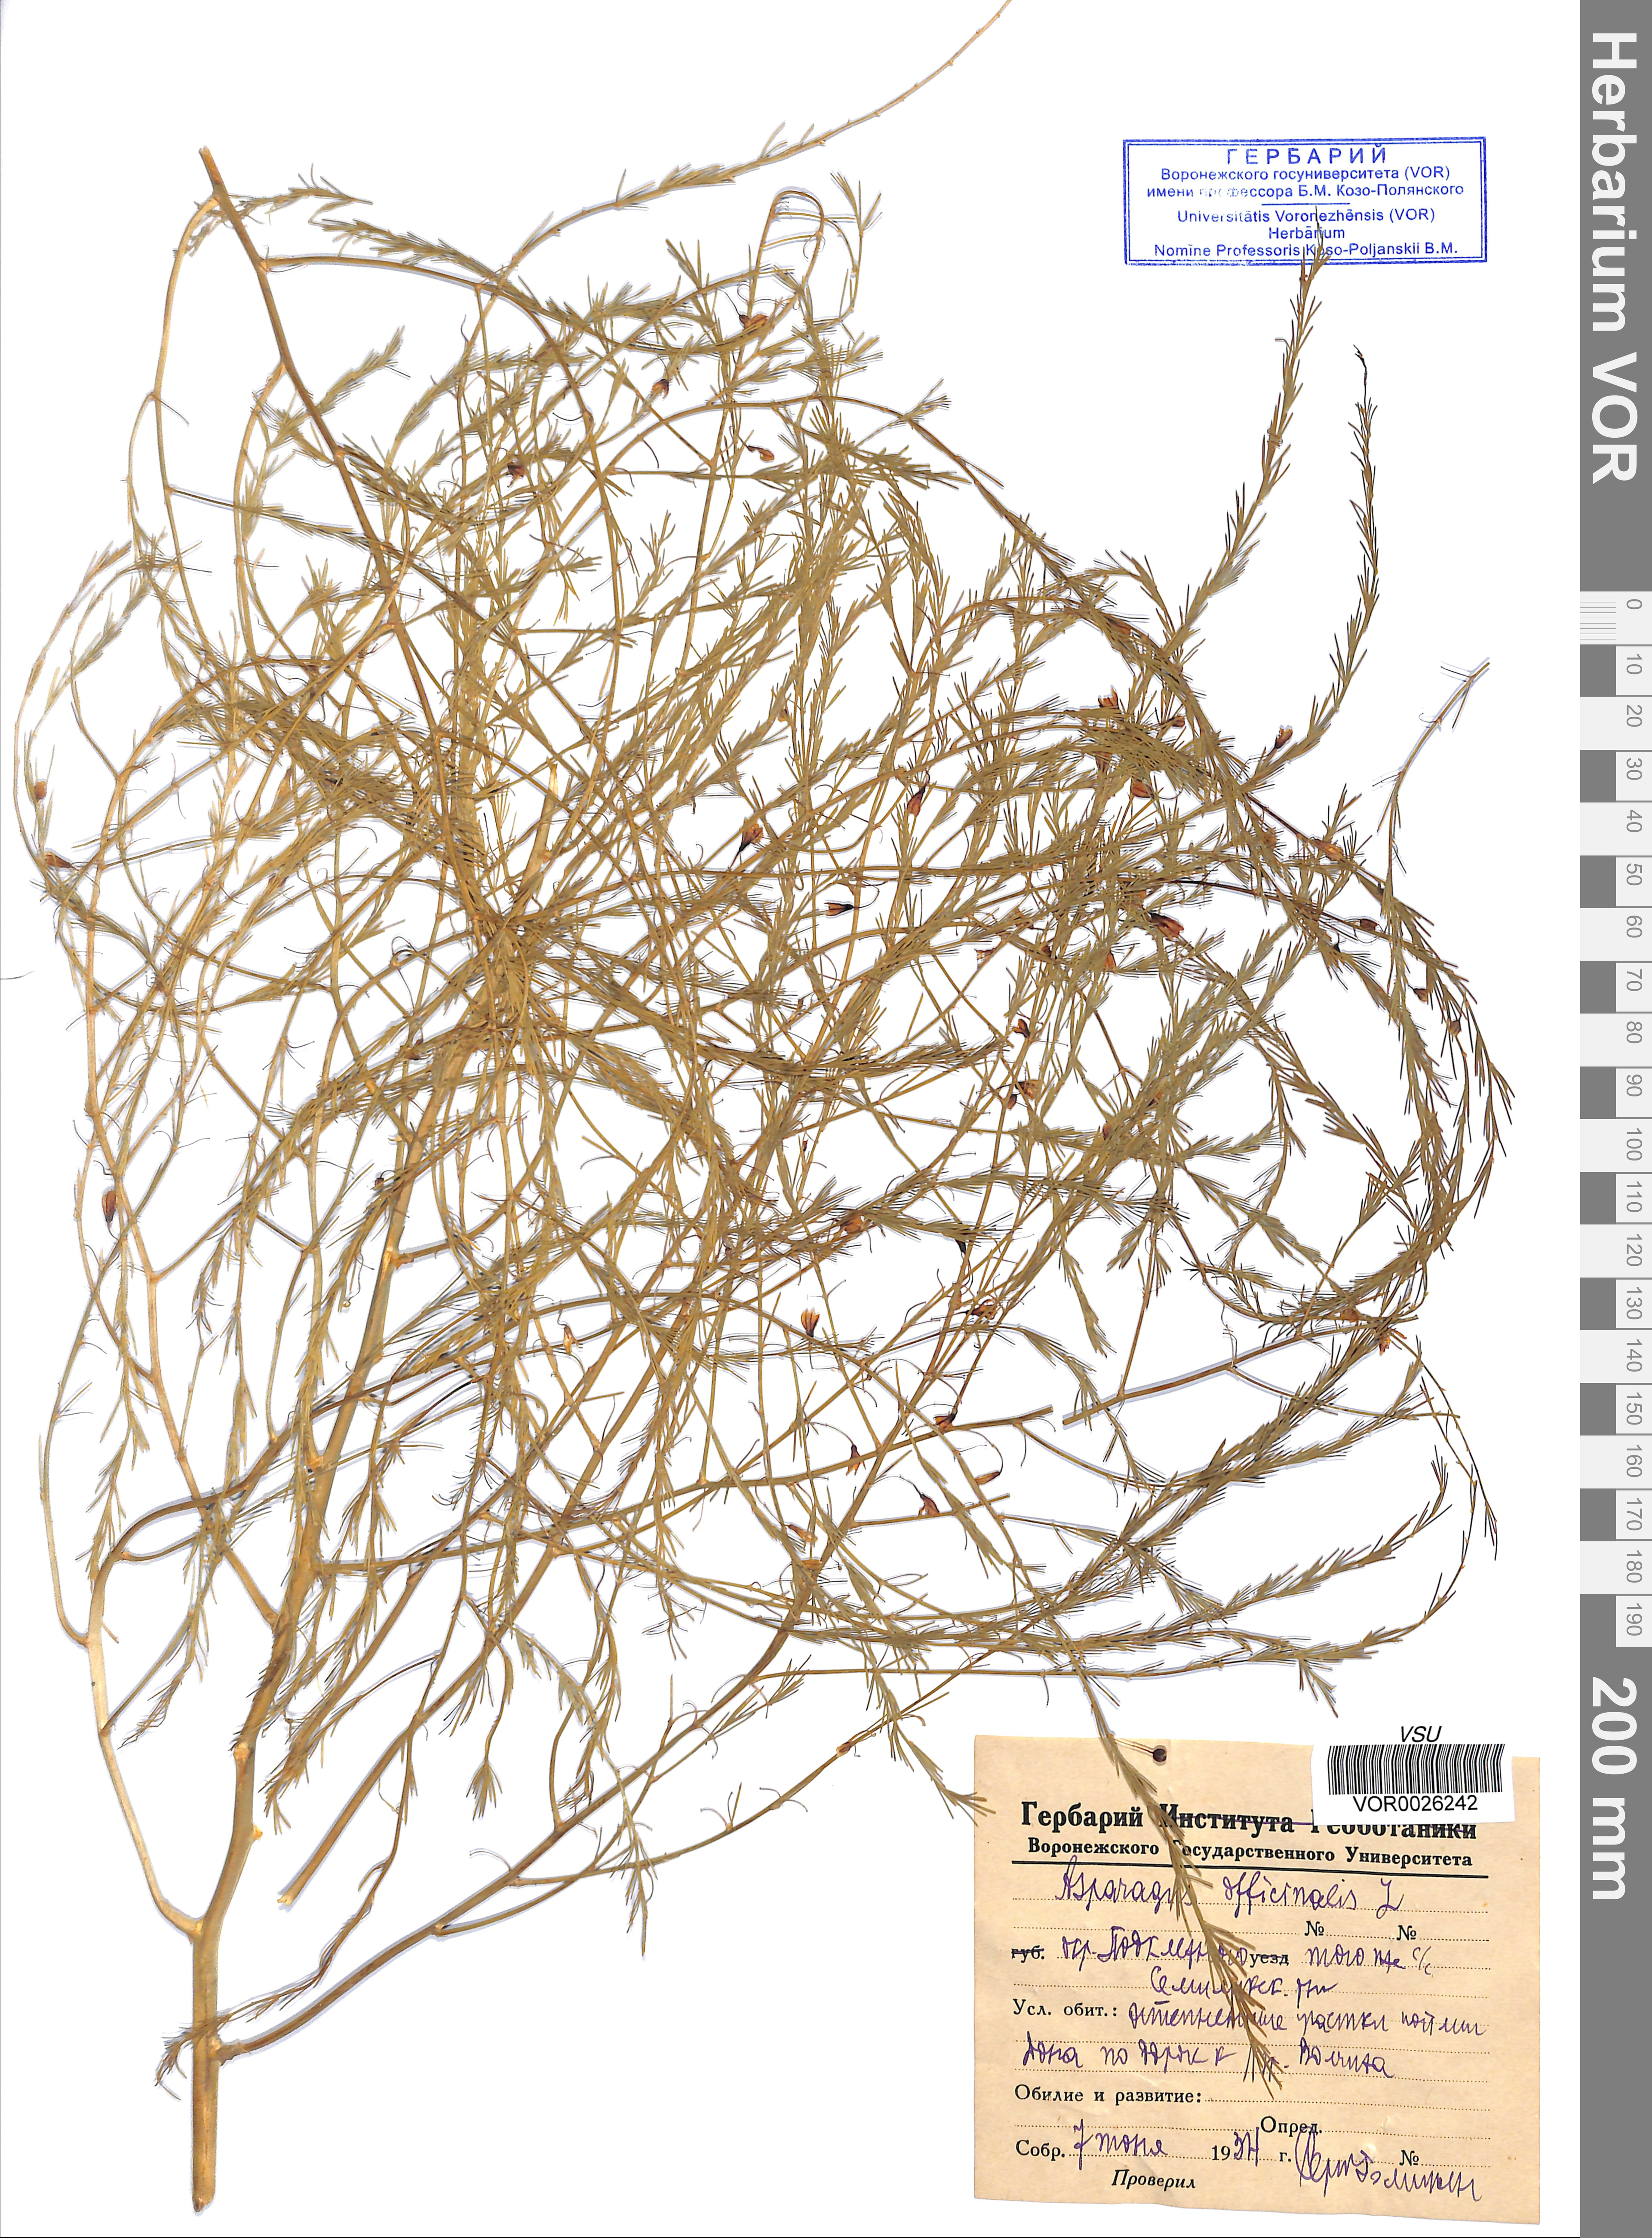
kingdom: Plantae
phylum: Tracheophyta
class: Liliopsida
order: Asparagales
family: Asparagaceae
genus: Asparagus
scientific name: Asparagus officinalis
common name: Garden asparagus
